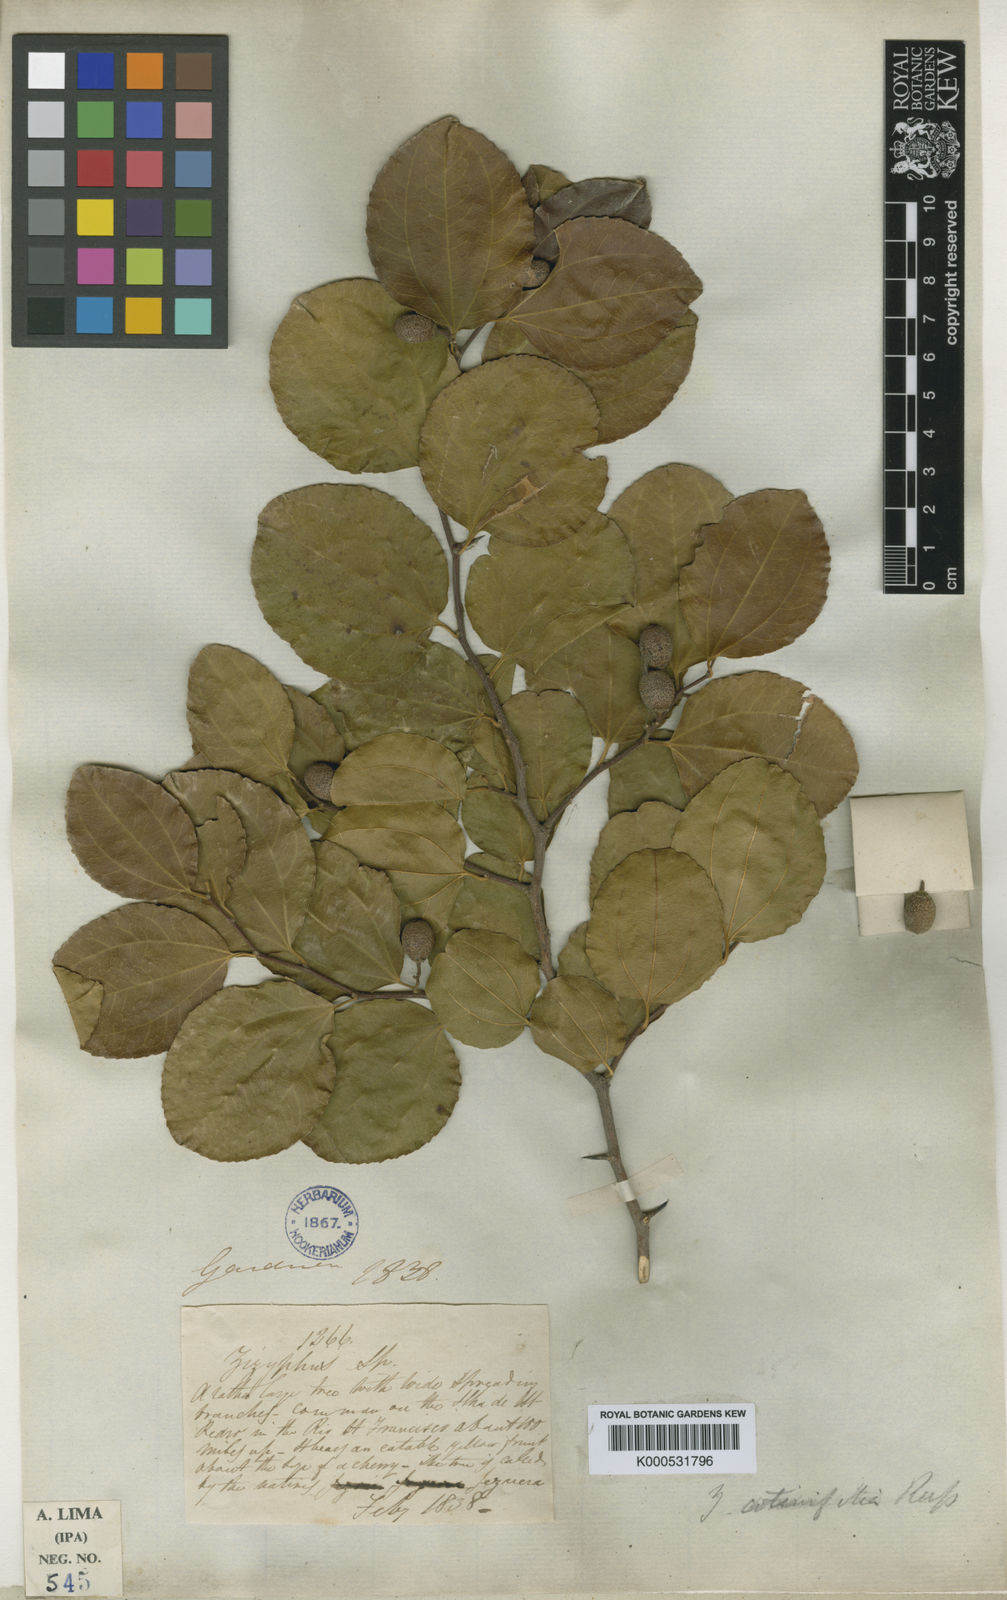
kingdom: Plantae
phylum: Tracheophyta
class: Magnoliopsida
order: Rosales
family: Rhamnaceae
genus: Sarcomphalus
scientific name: Sarcomphalus cotinifolius
